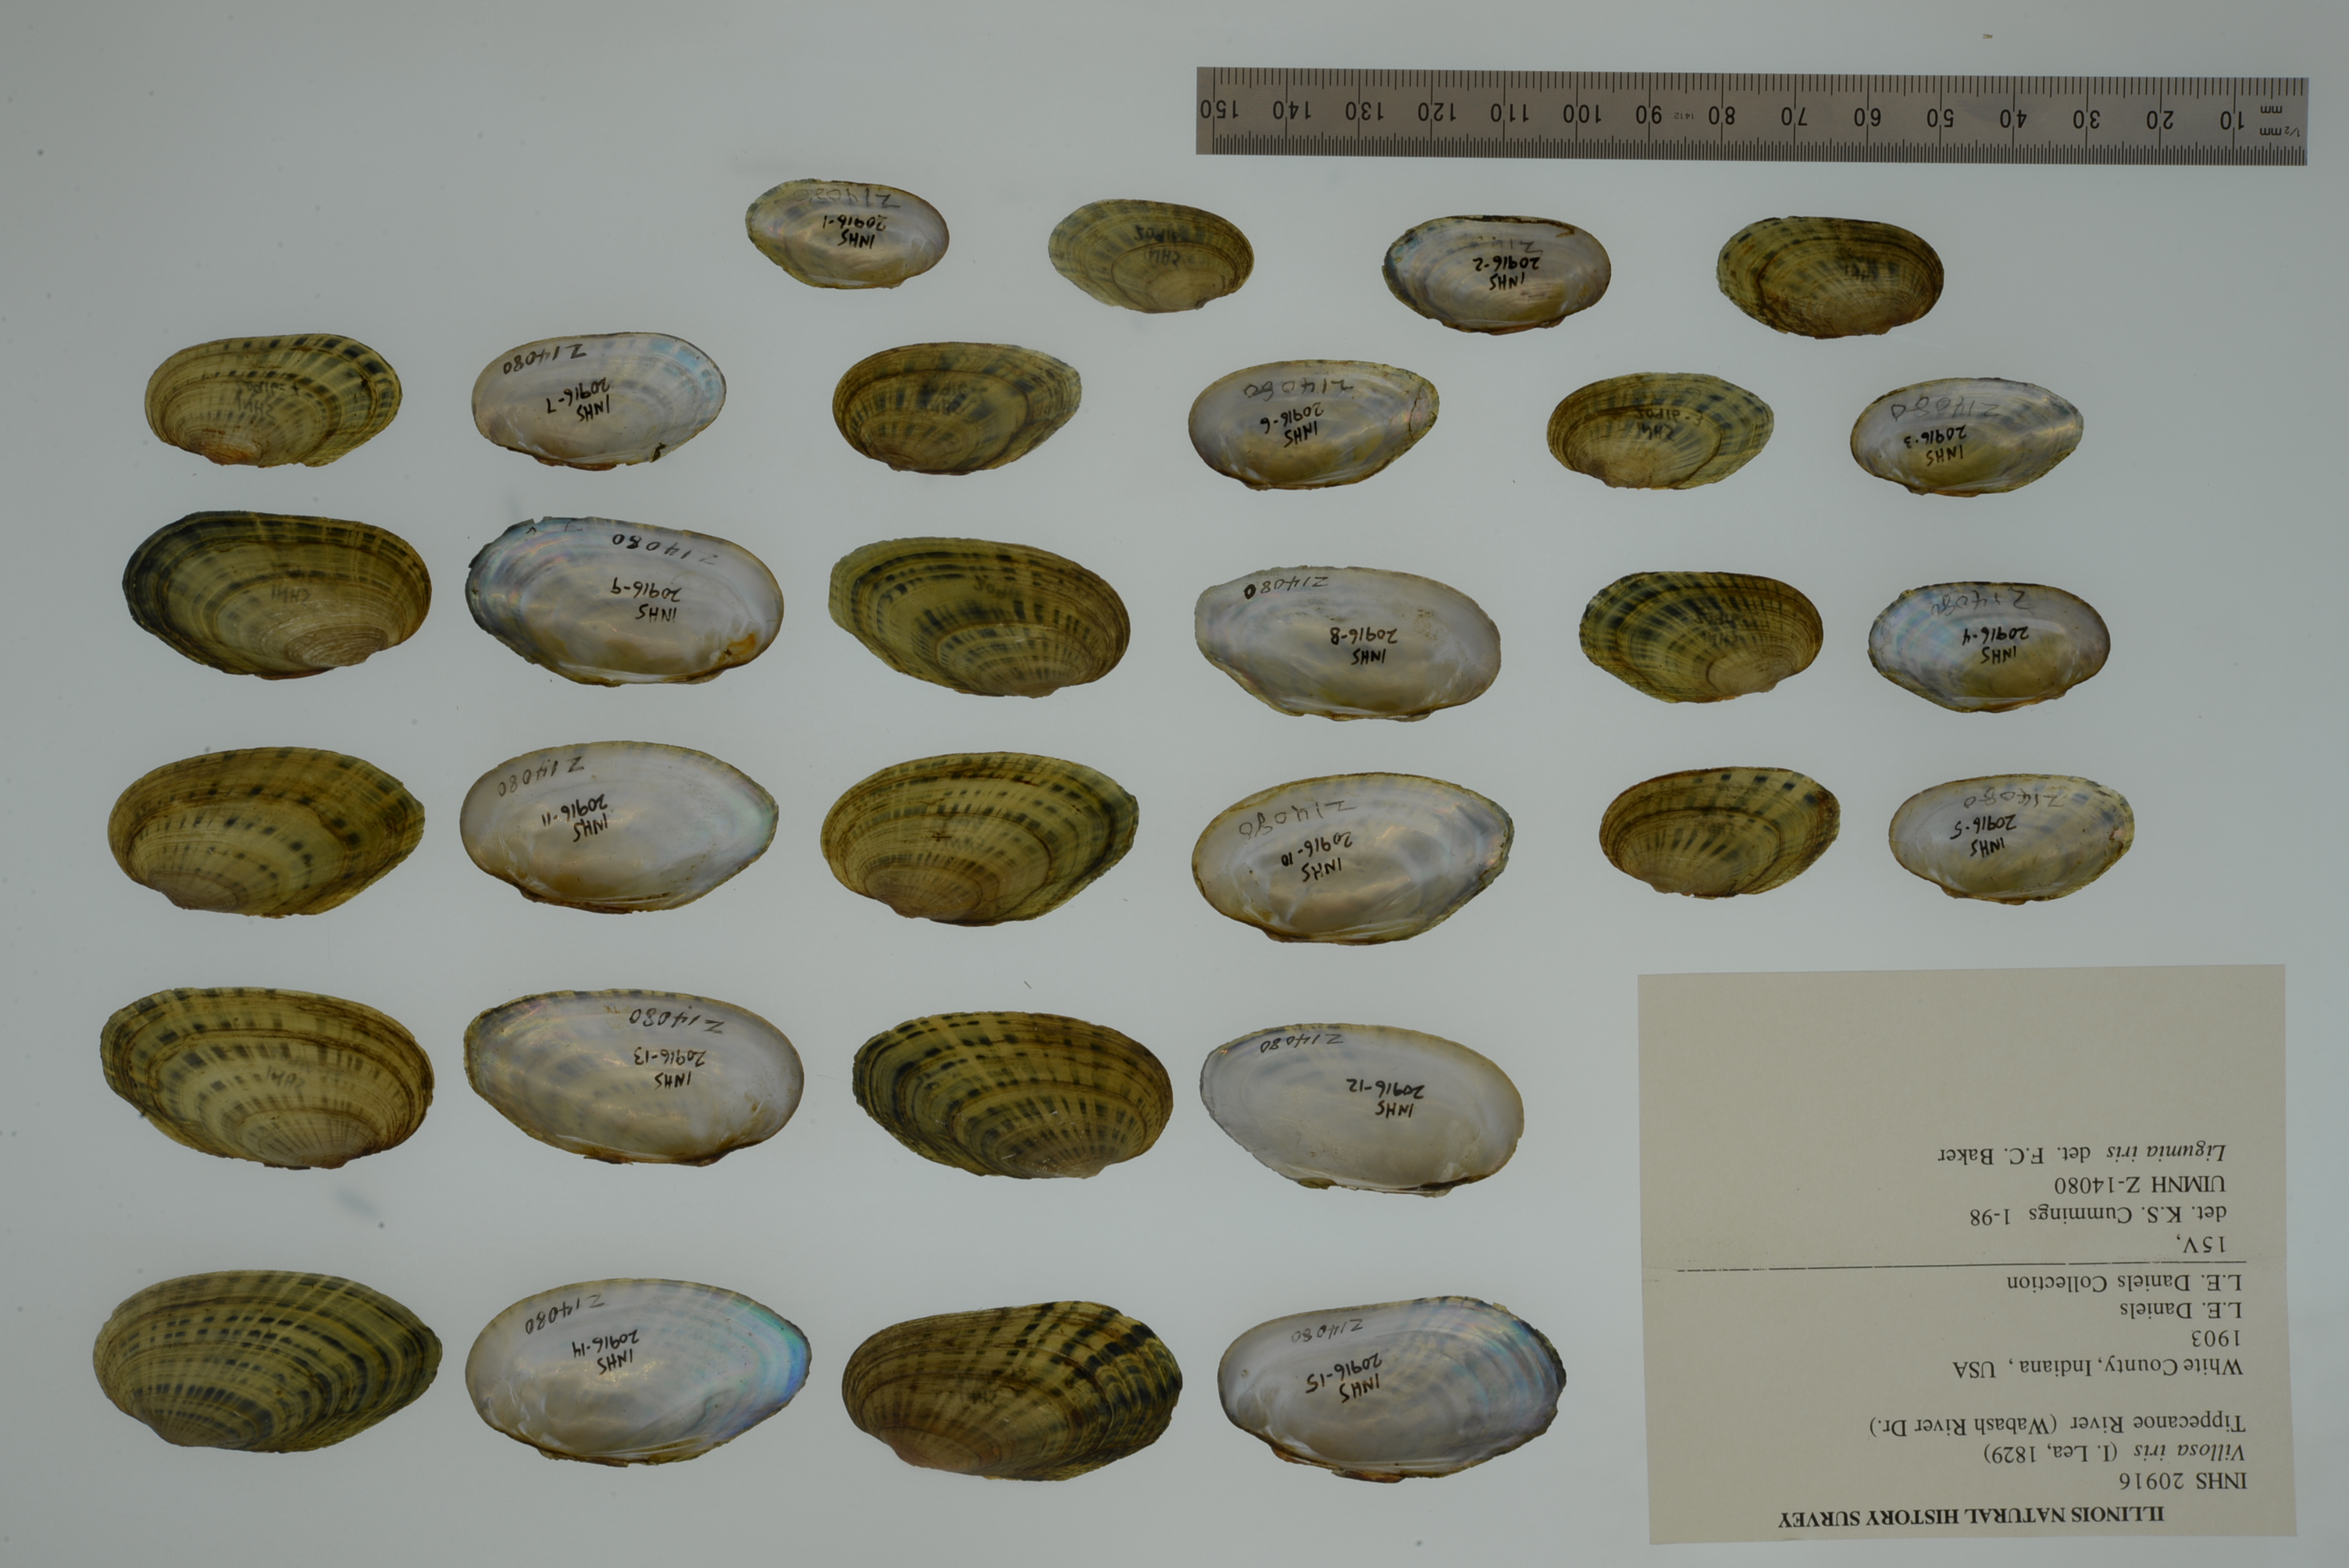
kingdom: Animalia
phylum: Mollusca
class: Bivalvia
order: Unionida
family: Unionidae
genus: Cambarunio
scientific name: Cambarunio iris
